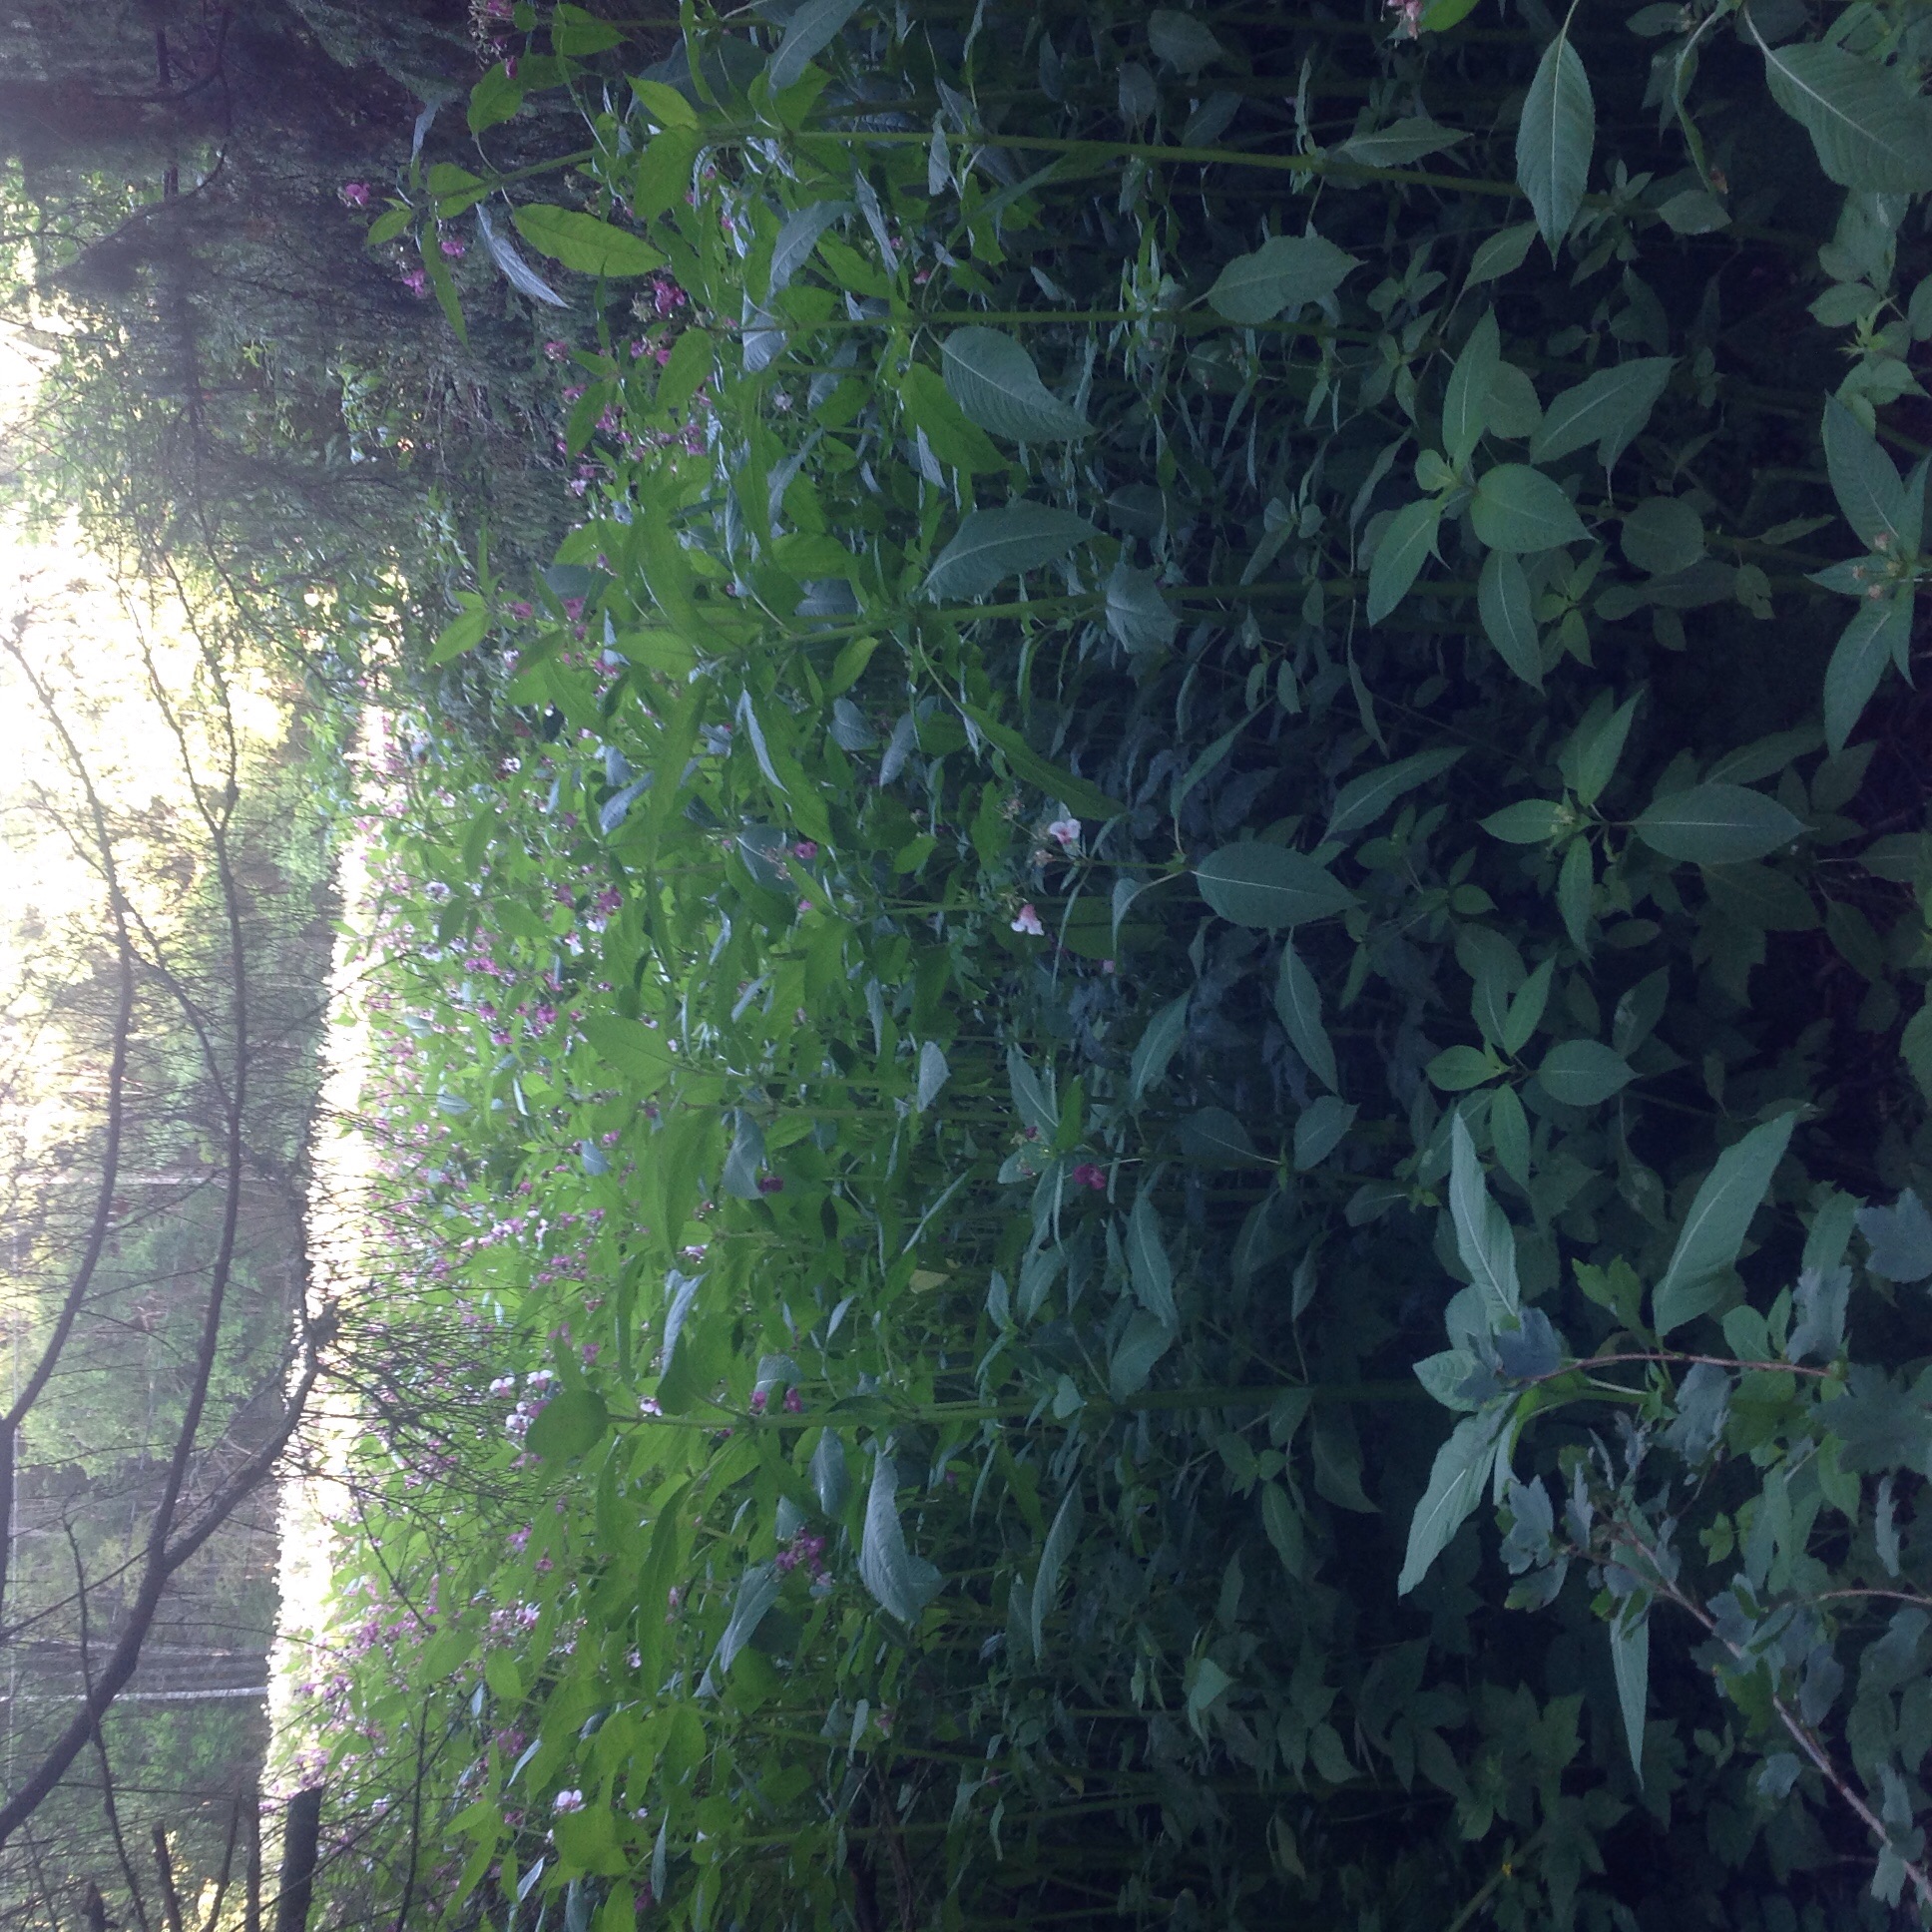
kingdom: Plantae
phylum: Tracheophyta
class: Magnoliopsida
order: Ericales
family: Balsaminaceae
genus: Impatiens
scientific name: Impatiens glandulifera
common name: Himalayan balsam
